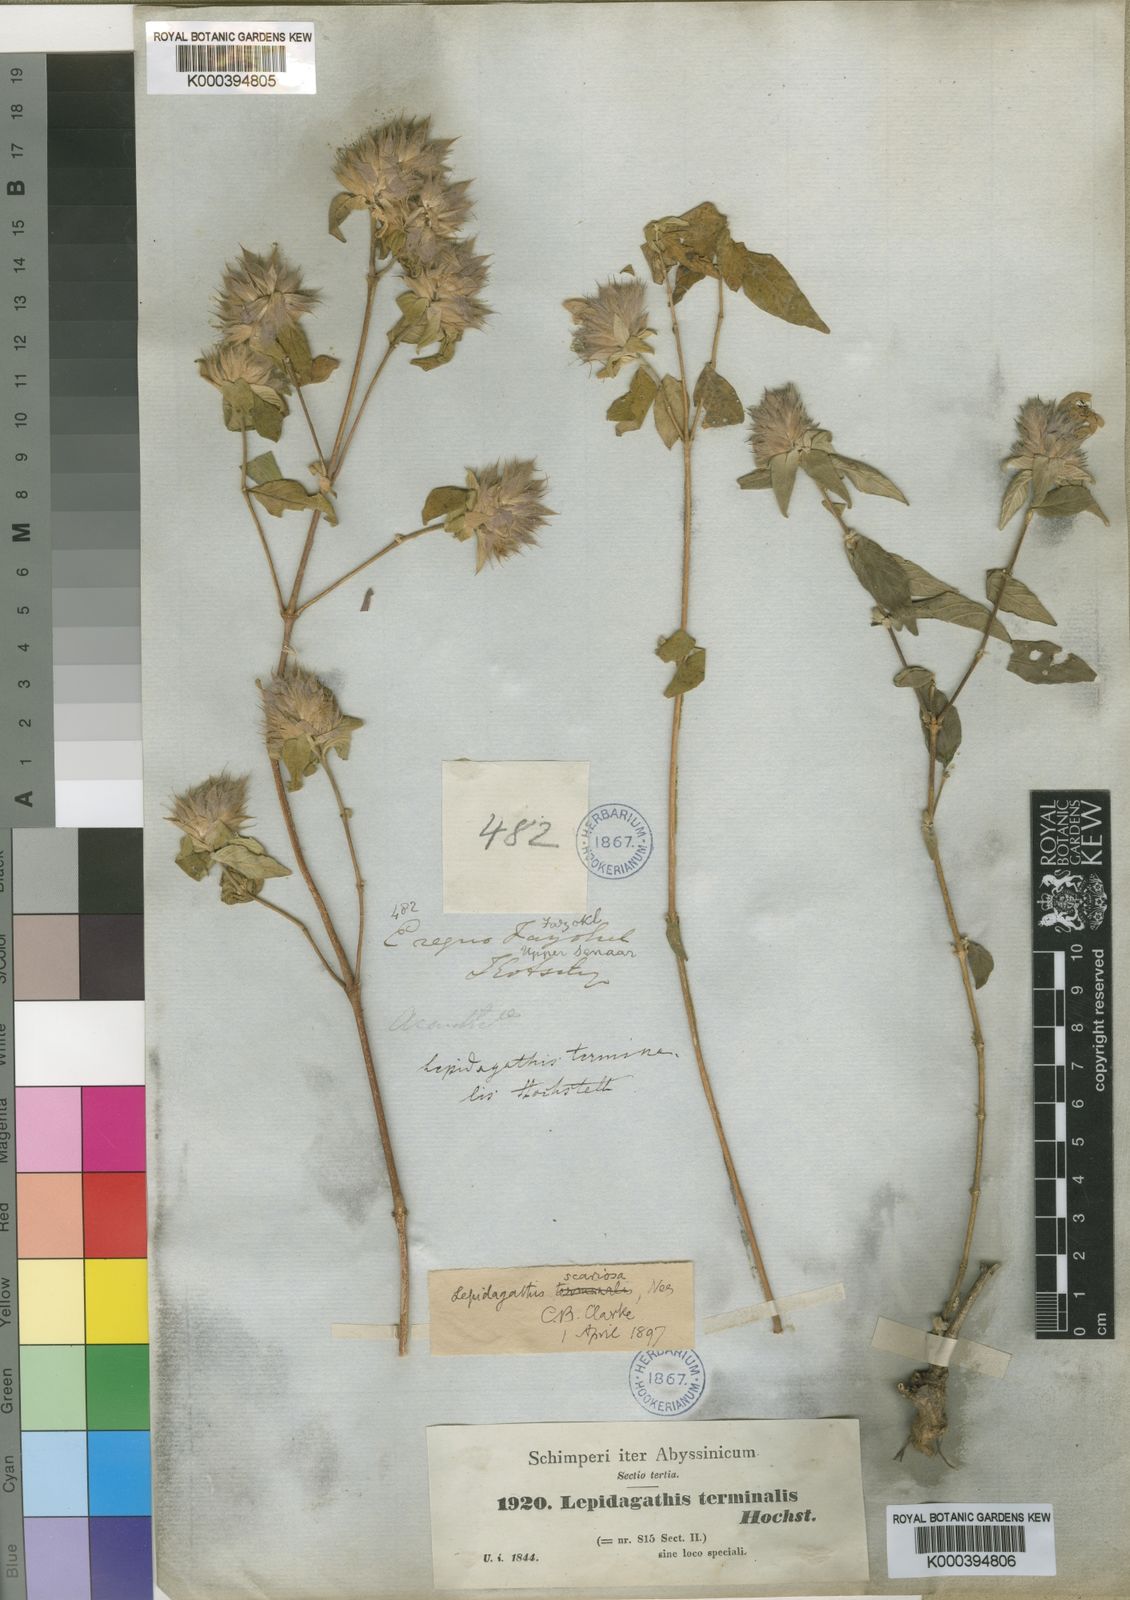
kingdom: Plantae
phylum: Tracheophyta
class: Magnoliopsida
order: Lamiales
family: Acanthaceae
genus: Lepidagathis
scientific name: Lepidagathis scariosa
